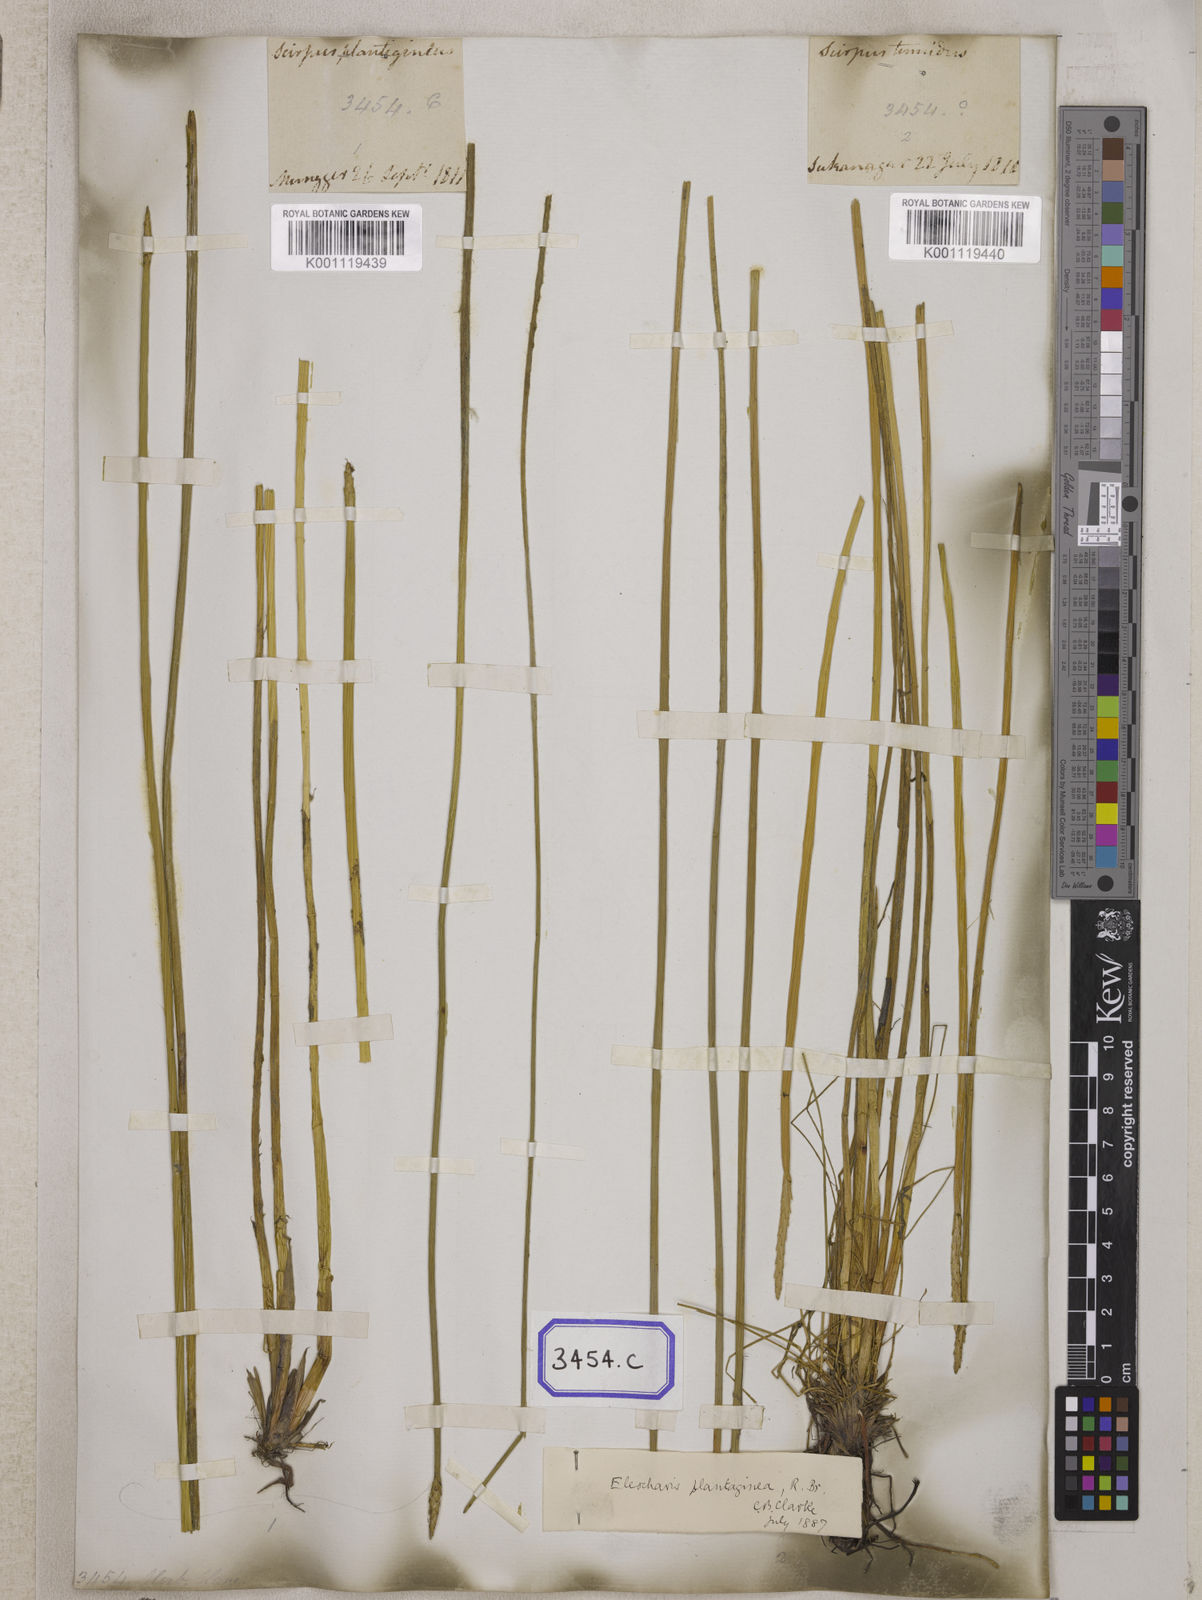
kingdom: Plantae
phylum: Tracheophyta
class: Liliopsida
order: Poales
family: Cyperaceae
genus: Eleocharis
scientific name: Eleocharis
